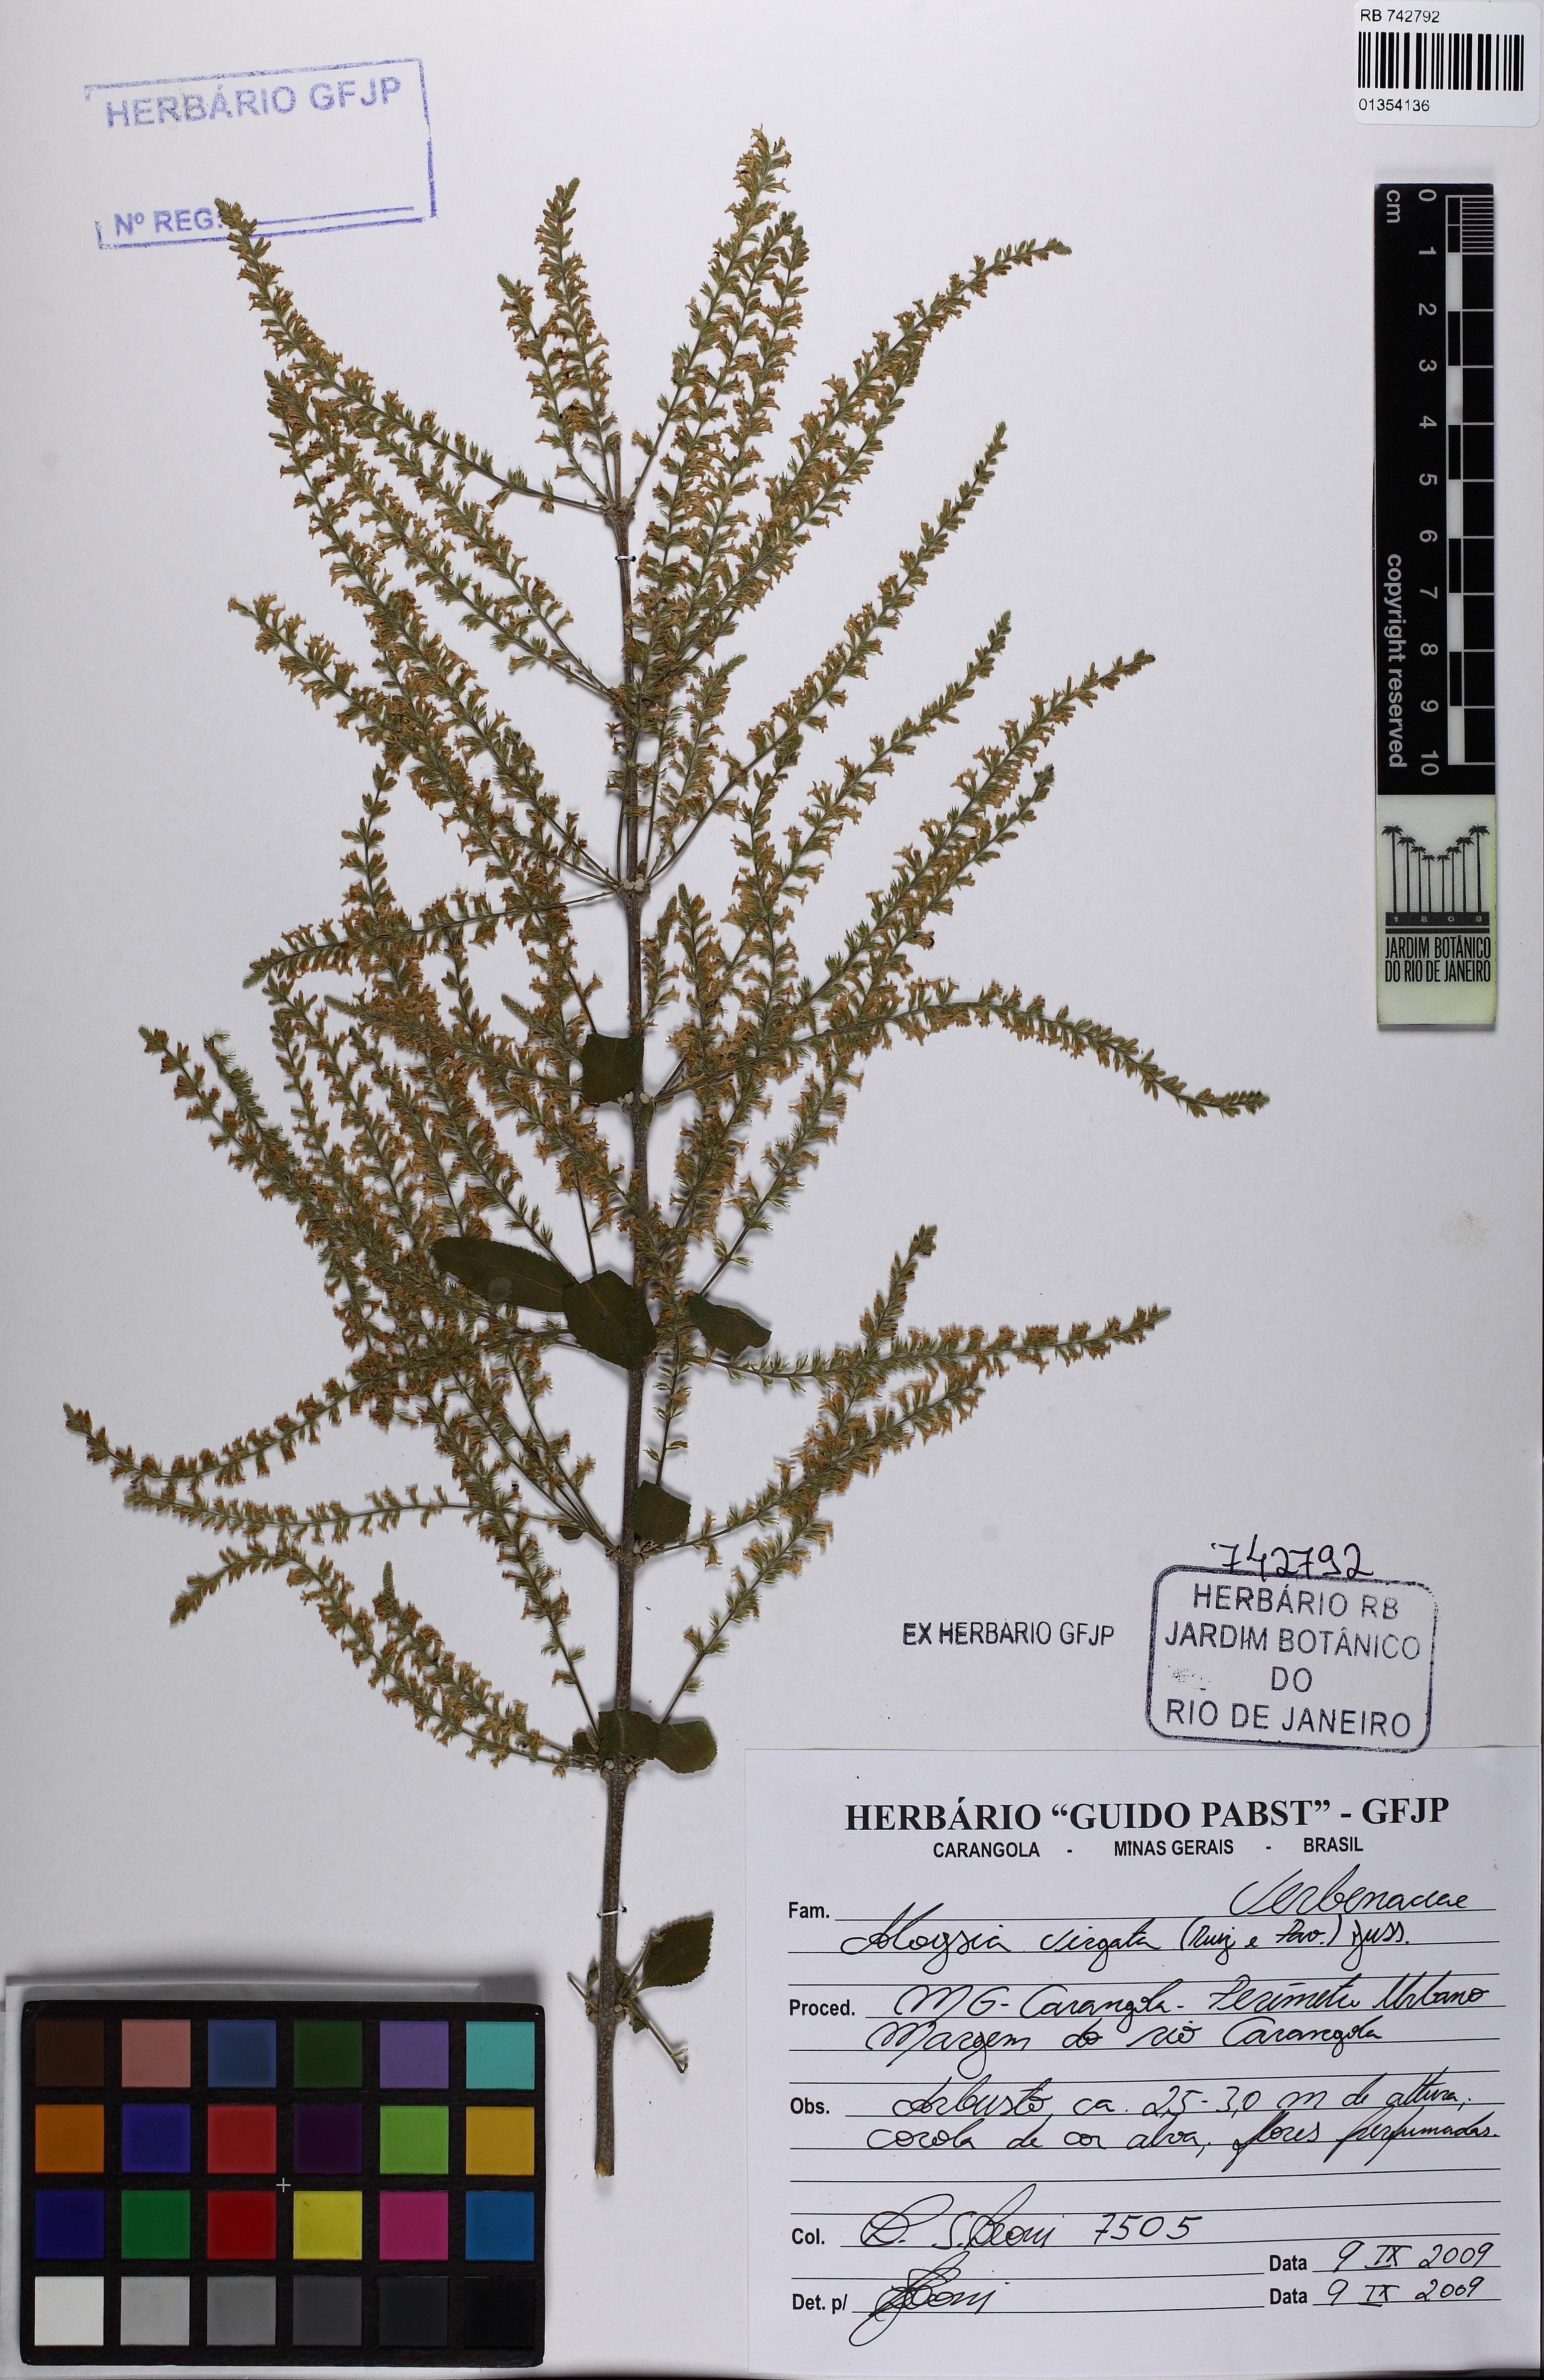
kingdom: Plantae
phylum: Tracheophyta
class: Magnoliopsida
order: Lamiales
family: Verbenaceae
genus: Aloysia
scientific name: Aloysia virgata
